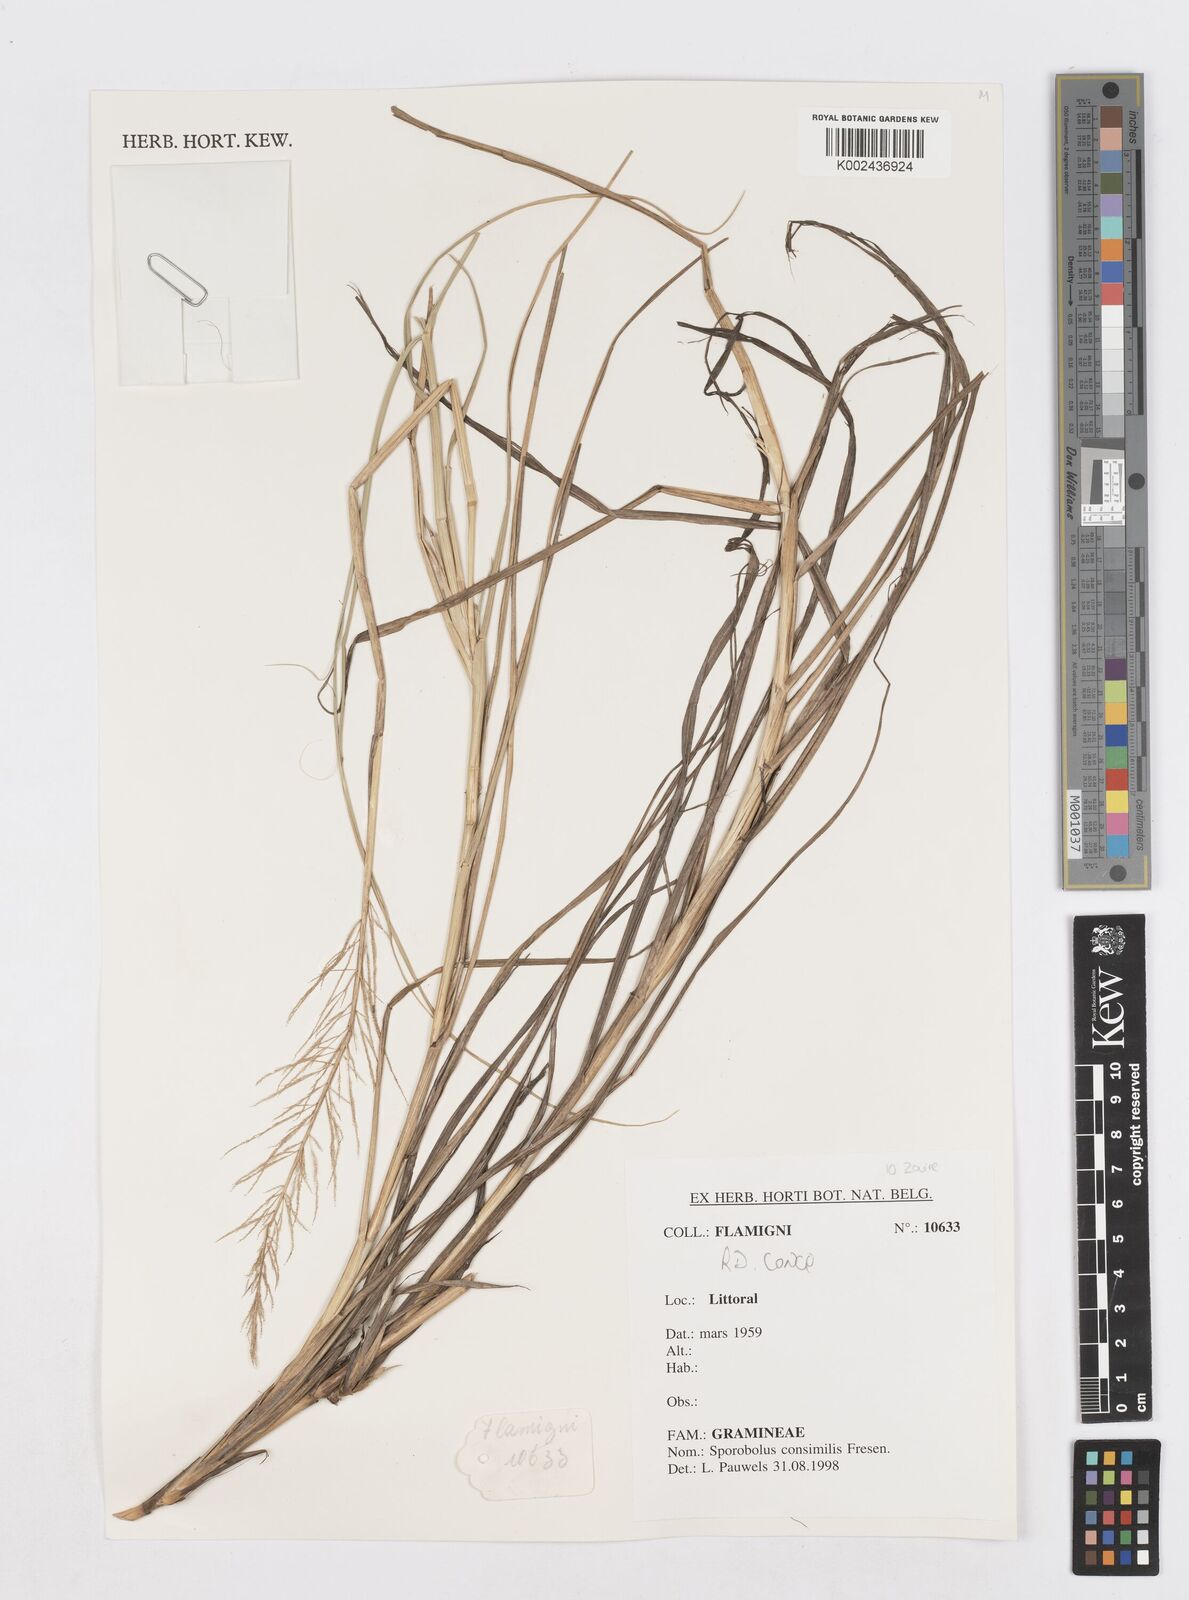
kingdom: Plantae
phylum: Tracheophyta
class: Liliopsida
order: Poales
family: Poaceae
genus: Sporobolus
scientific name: Sporobolus consimilis
